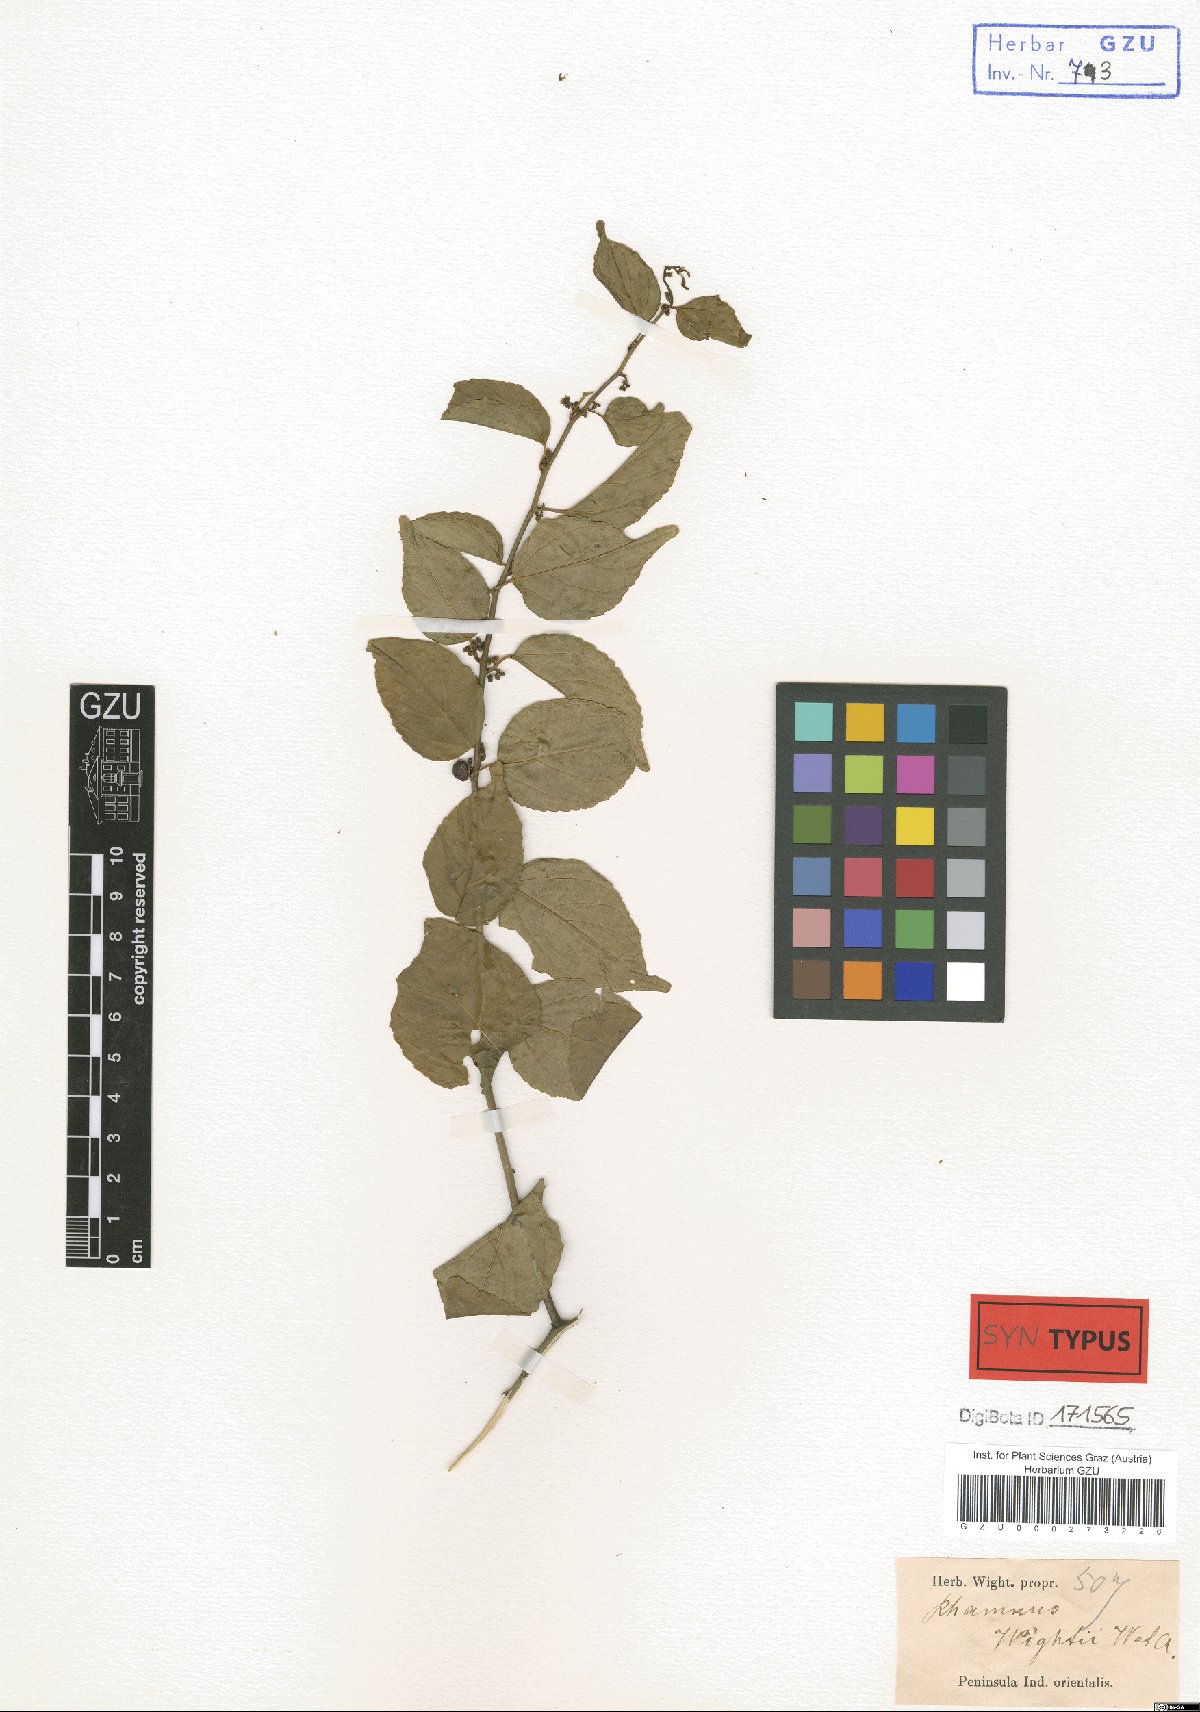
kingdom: Plantae
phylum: Tracheophyta
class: Magnoliopsida
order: Rosales
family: Rhamnaceae
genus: Rhamnus
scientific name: Rhamnus wightii
